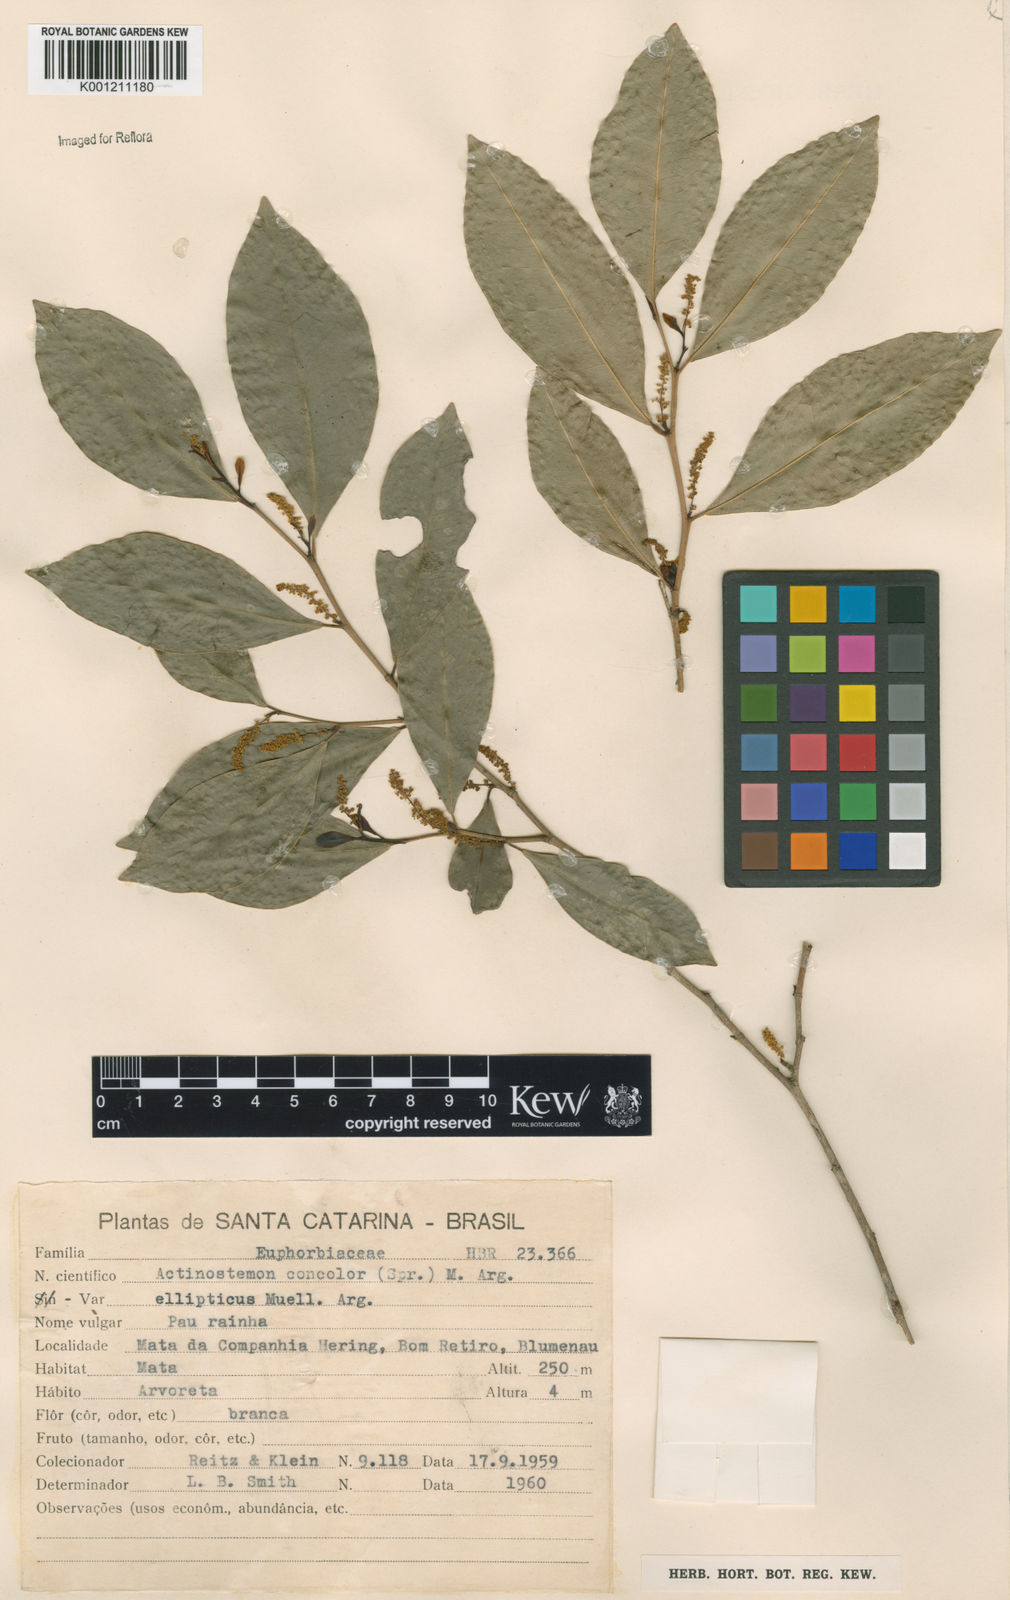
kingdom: Plantae
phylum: Tracheophyta
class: Magnoliopsida
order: Malpighiales
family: Euphorbiaceae
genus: Actinostemon
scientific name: Actinostemon
